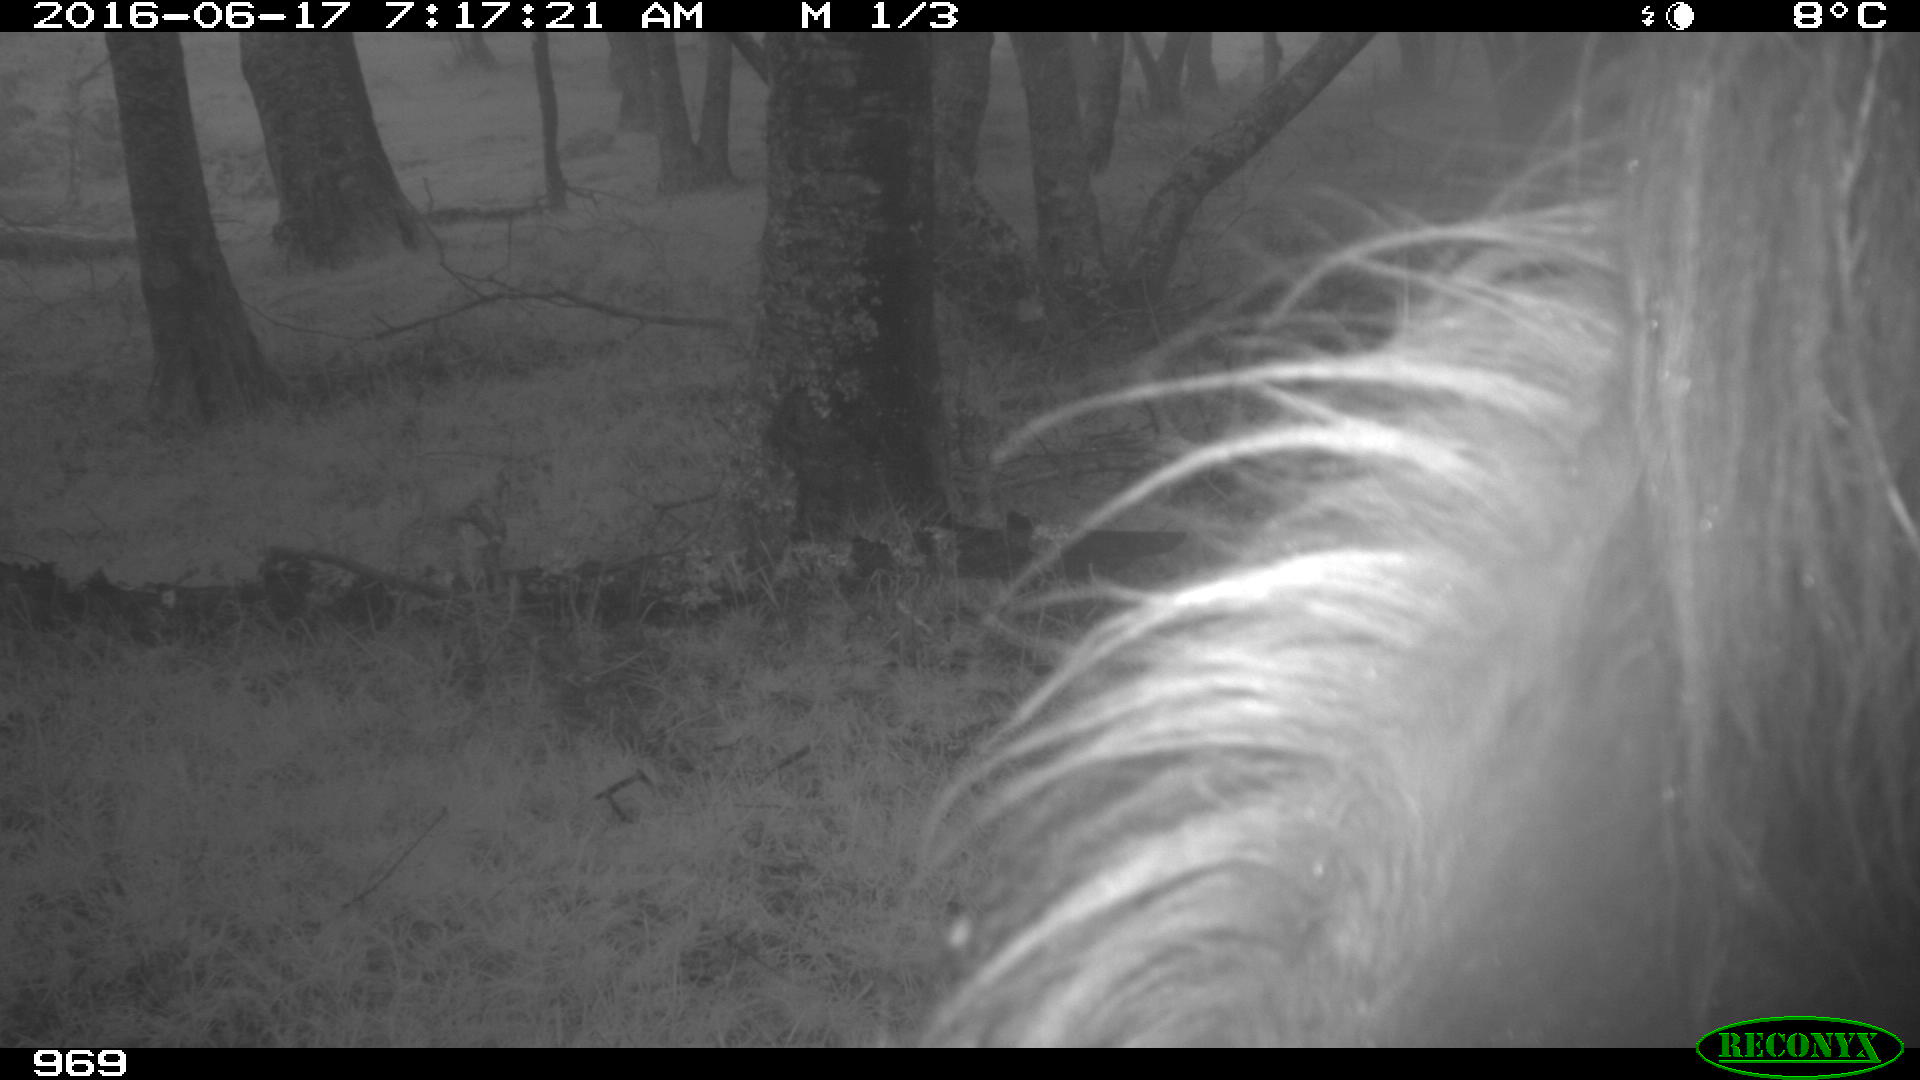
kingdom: Animalia
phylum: Chordata
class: Mammalia
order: Perissodactyla
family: Equidae
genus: Equus
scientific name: Equus caballus
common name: Horse
